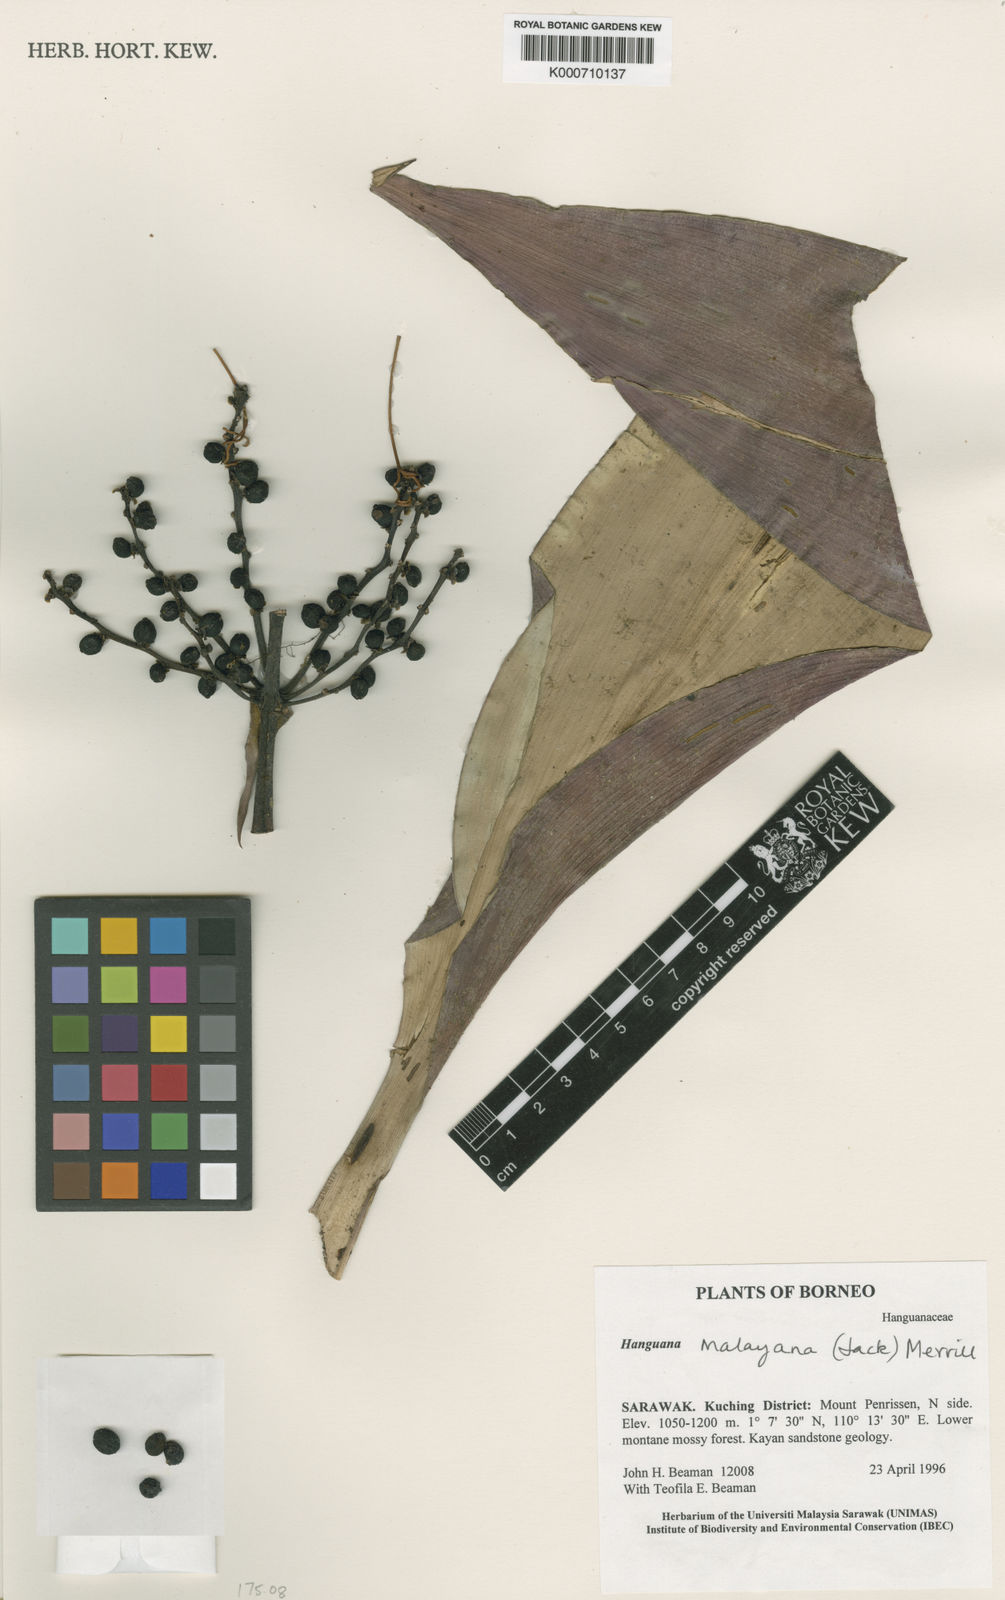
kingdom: Plantae
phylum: Tracheophyta
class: Liliopsida
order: Commelinales
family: Hanguanaceae
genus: Hanguana
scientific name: Hanguana malayana
